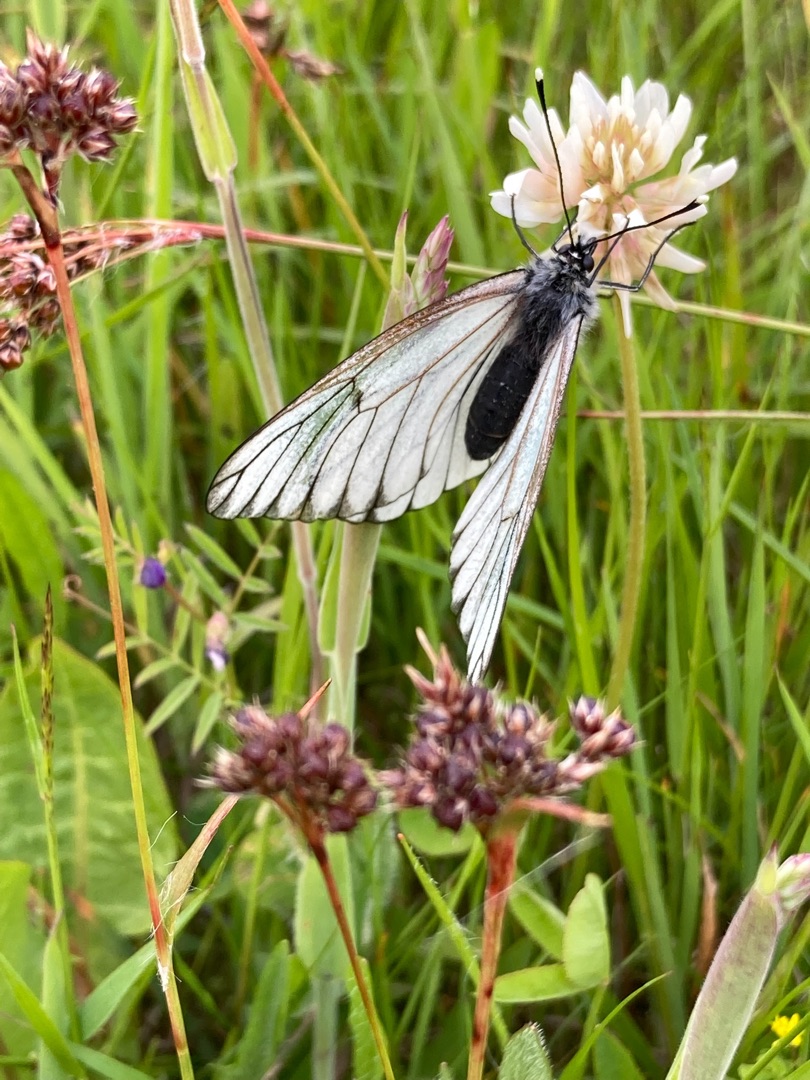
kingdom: Animalia
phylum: Arthropoda
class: Insecta
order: Lepidoptera
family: Pieridae
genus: Aporia
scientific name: Aporia crataegi
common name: Sortåret hvidvinge
